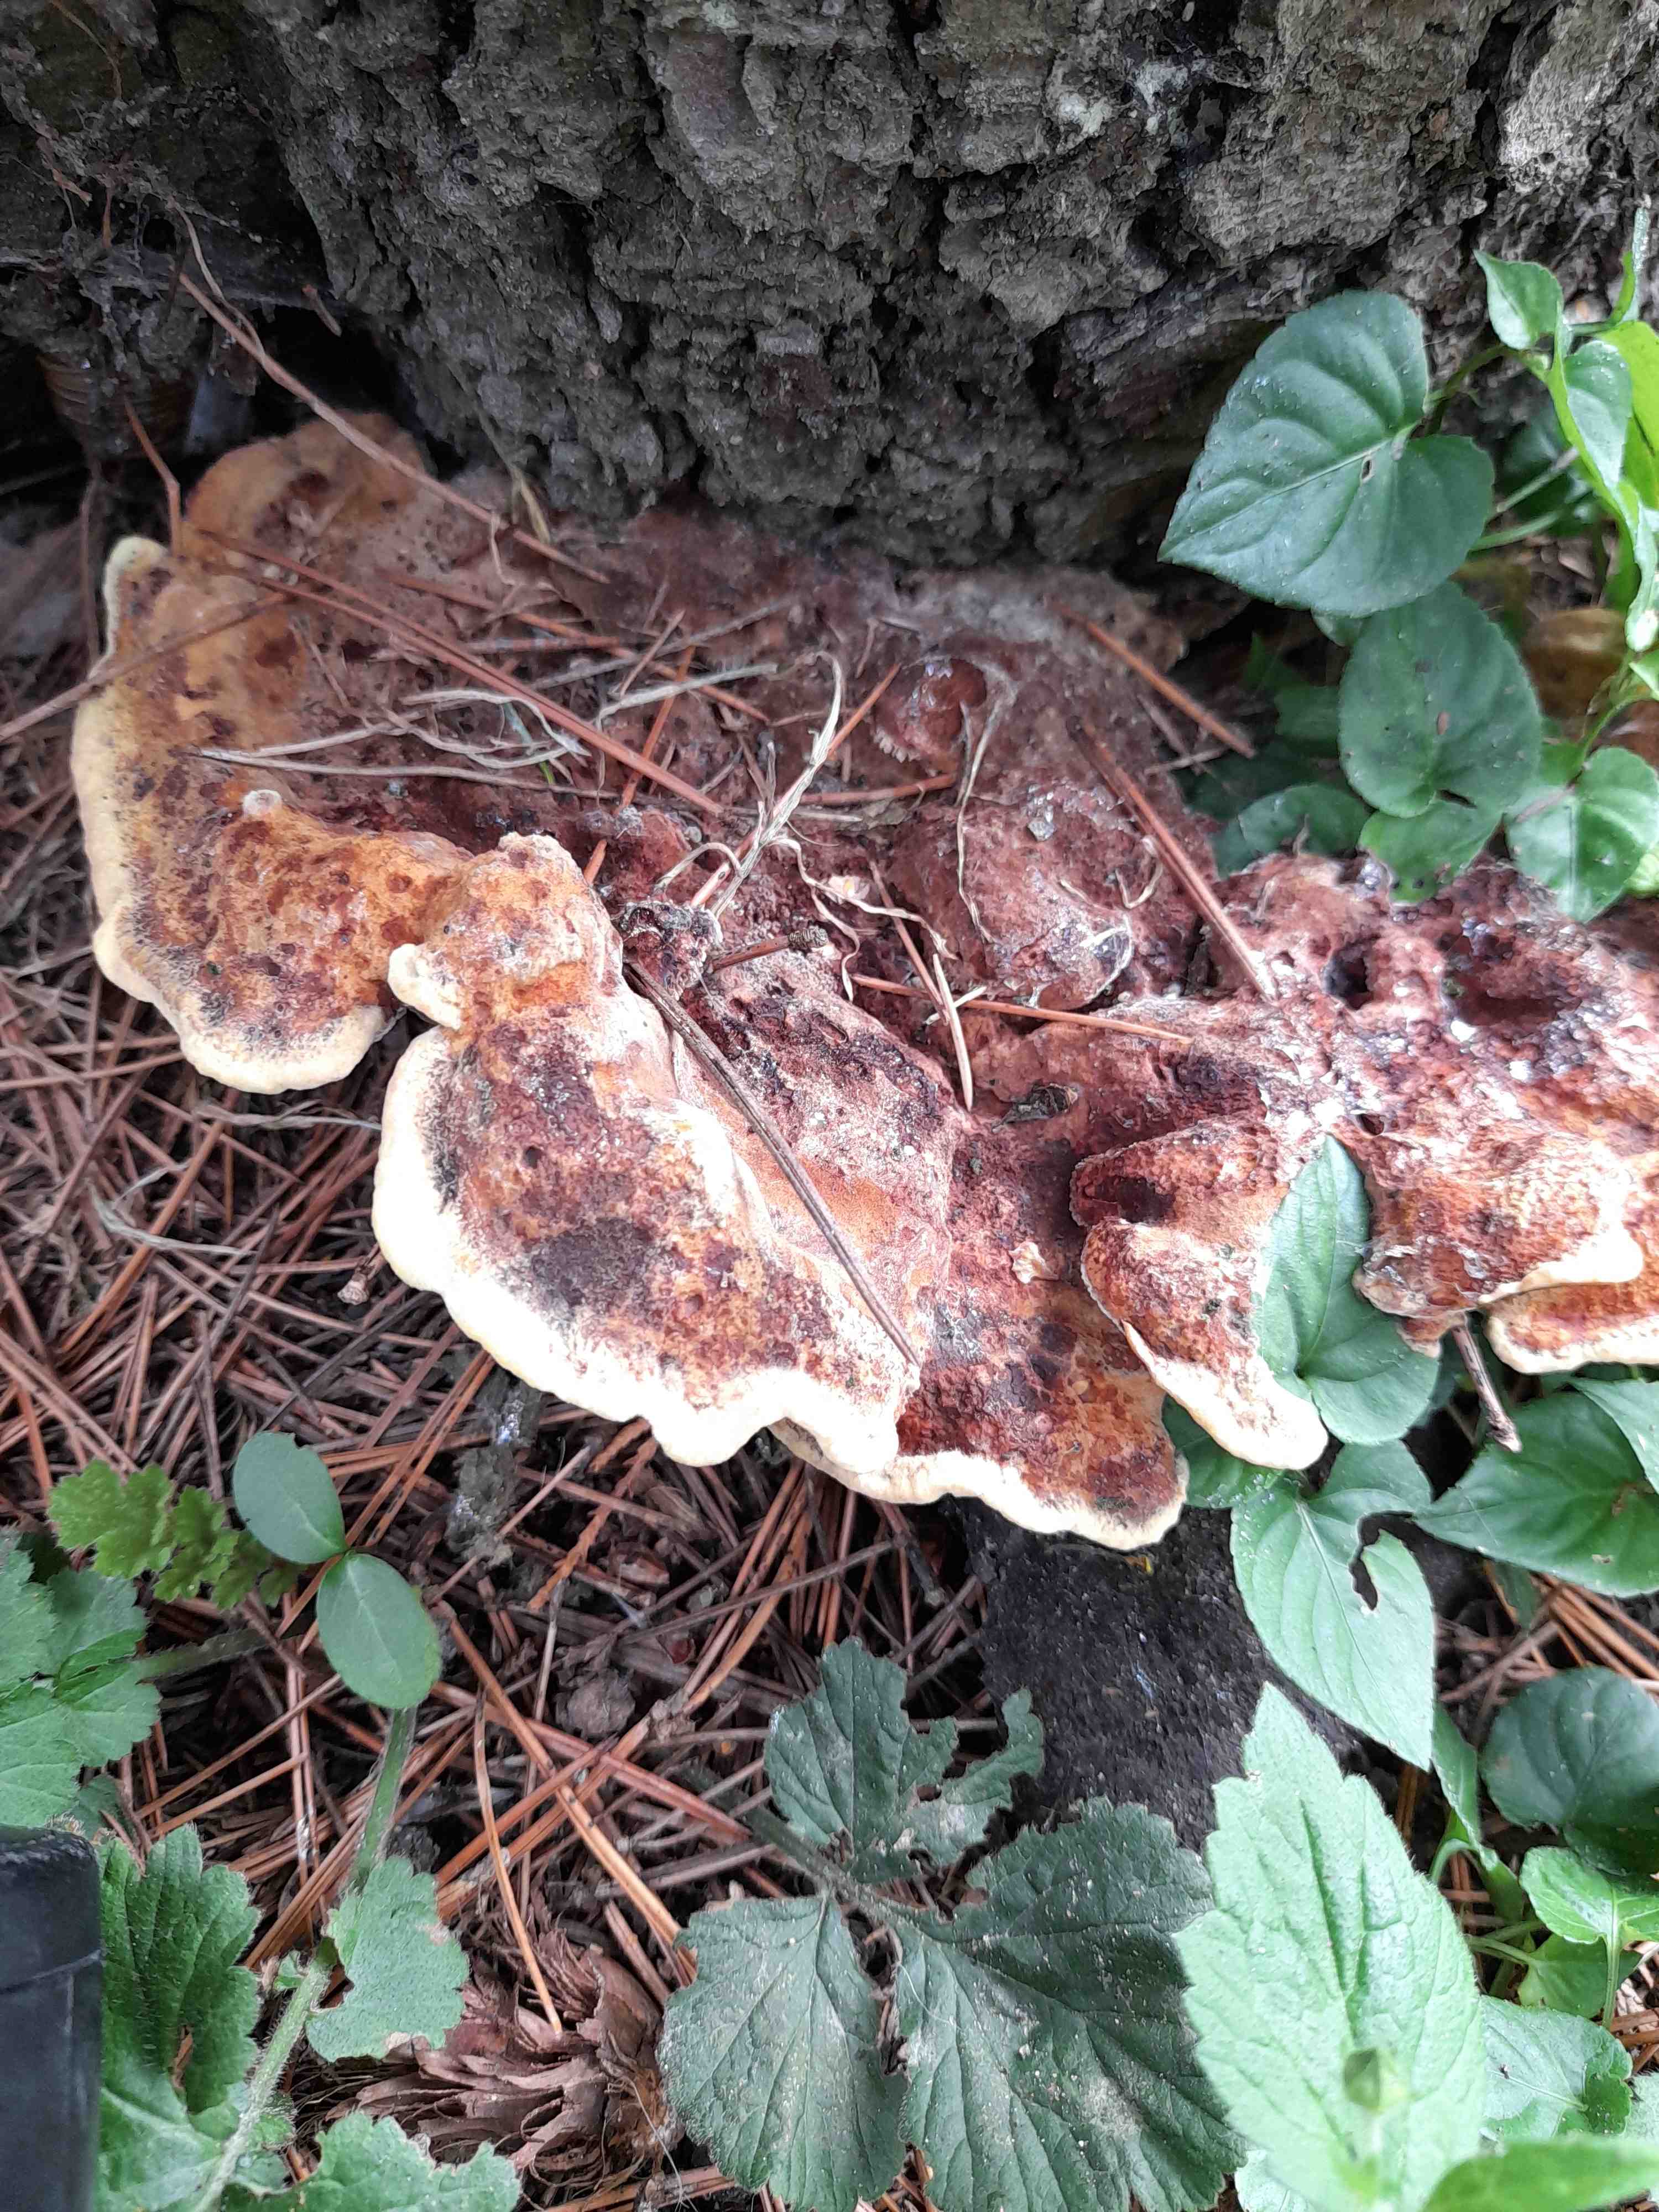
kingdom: Fungi
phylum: Basidiomycota
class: Agaricomycetes
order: Polyporales
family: Laetiporaceae
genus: Phaeolus
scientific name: Phaeolus schweinitzii
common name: brunporesvamp
